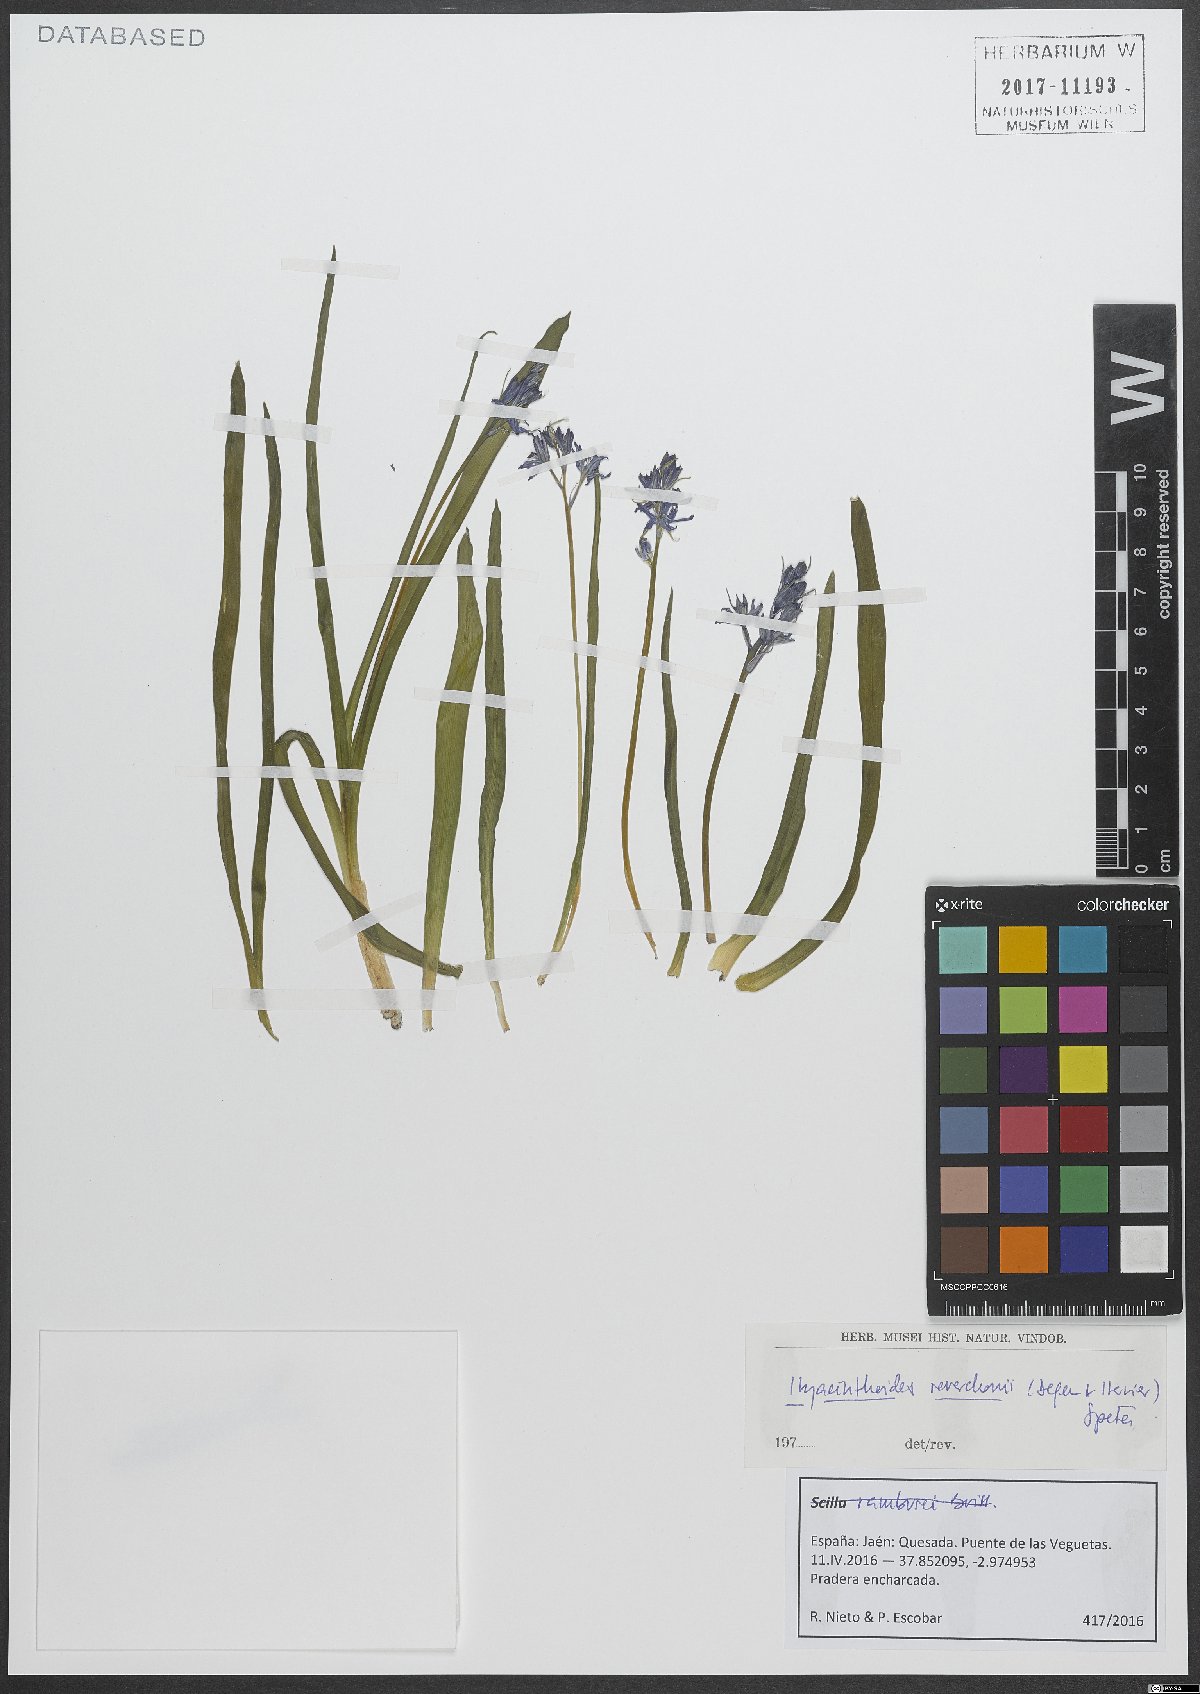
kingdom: Plantae
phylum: Tracheophyta
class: Liliopsida
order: Asparagales
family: Asparagaceae
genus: Hyacinthoides
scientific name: Hyacinthoides reverchonii
